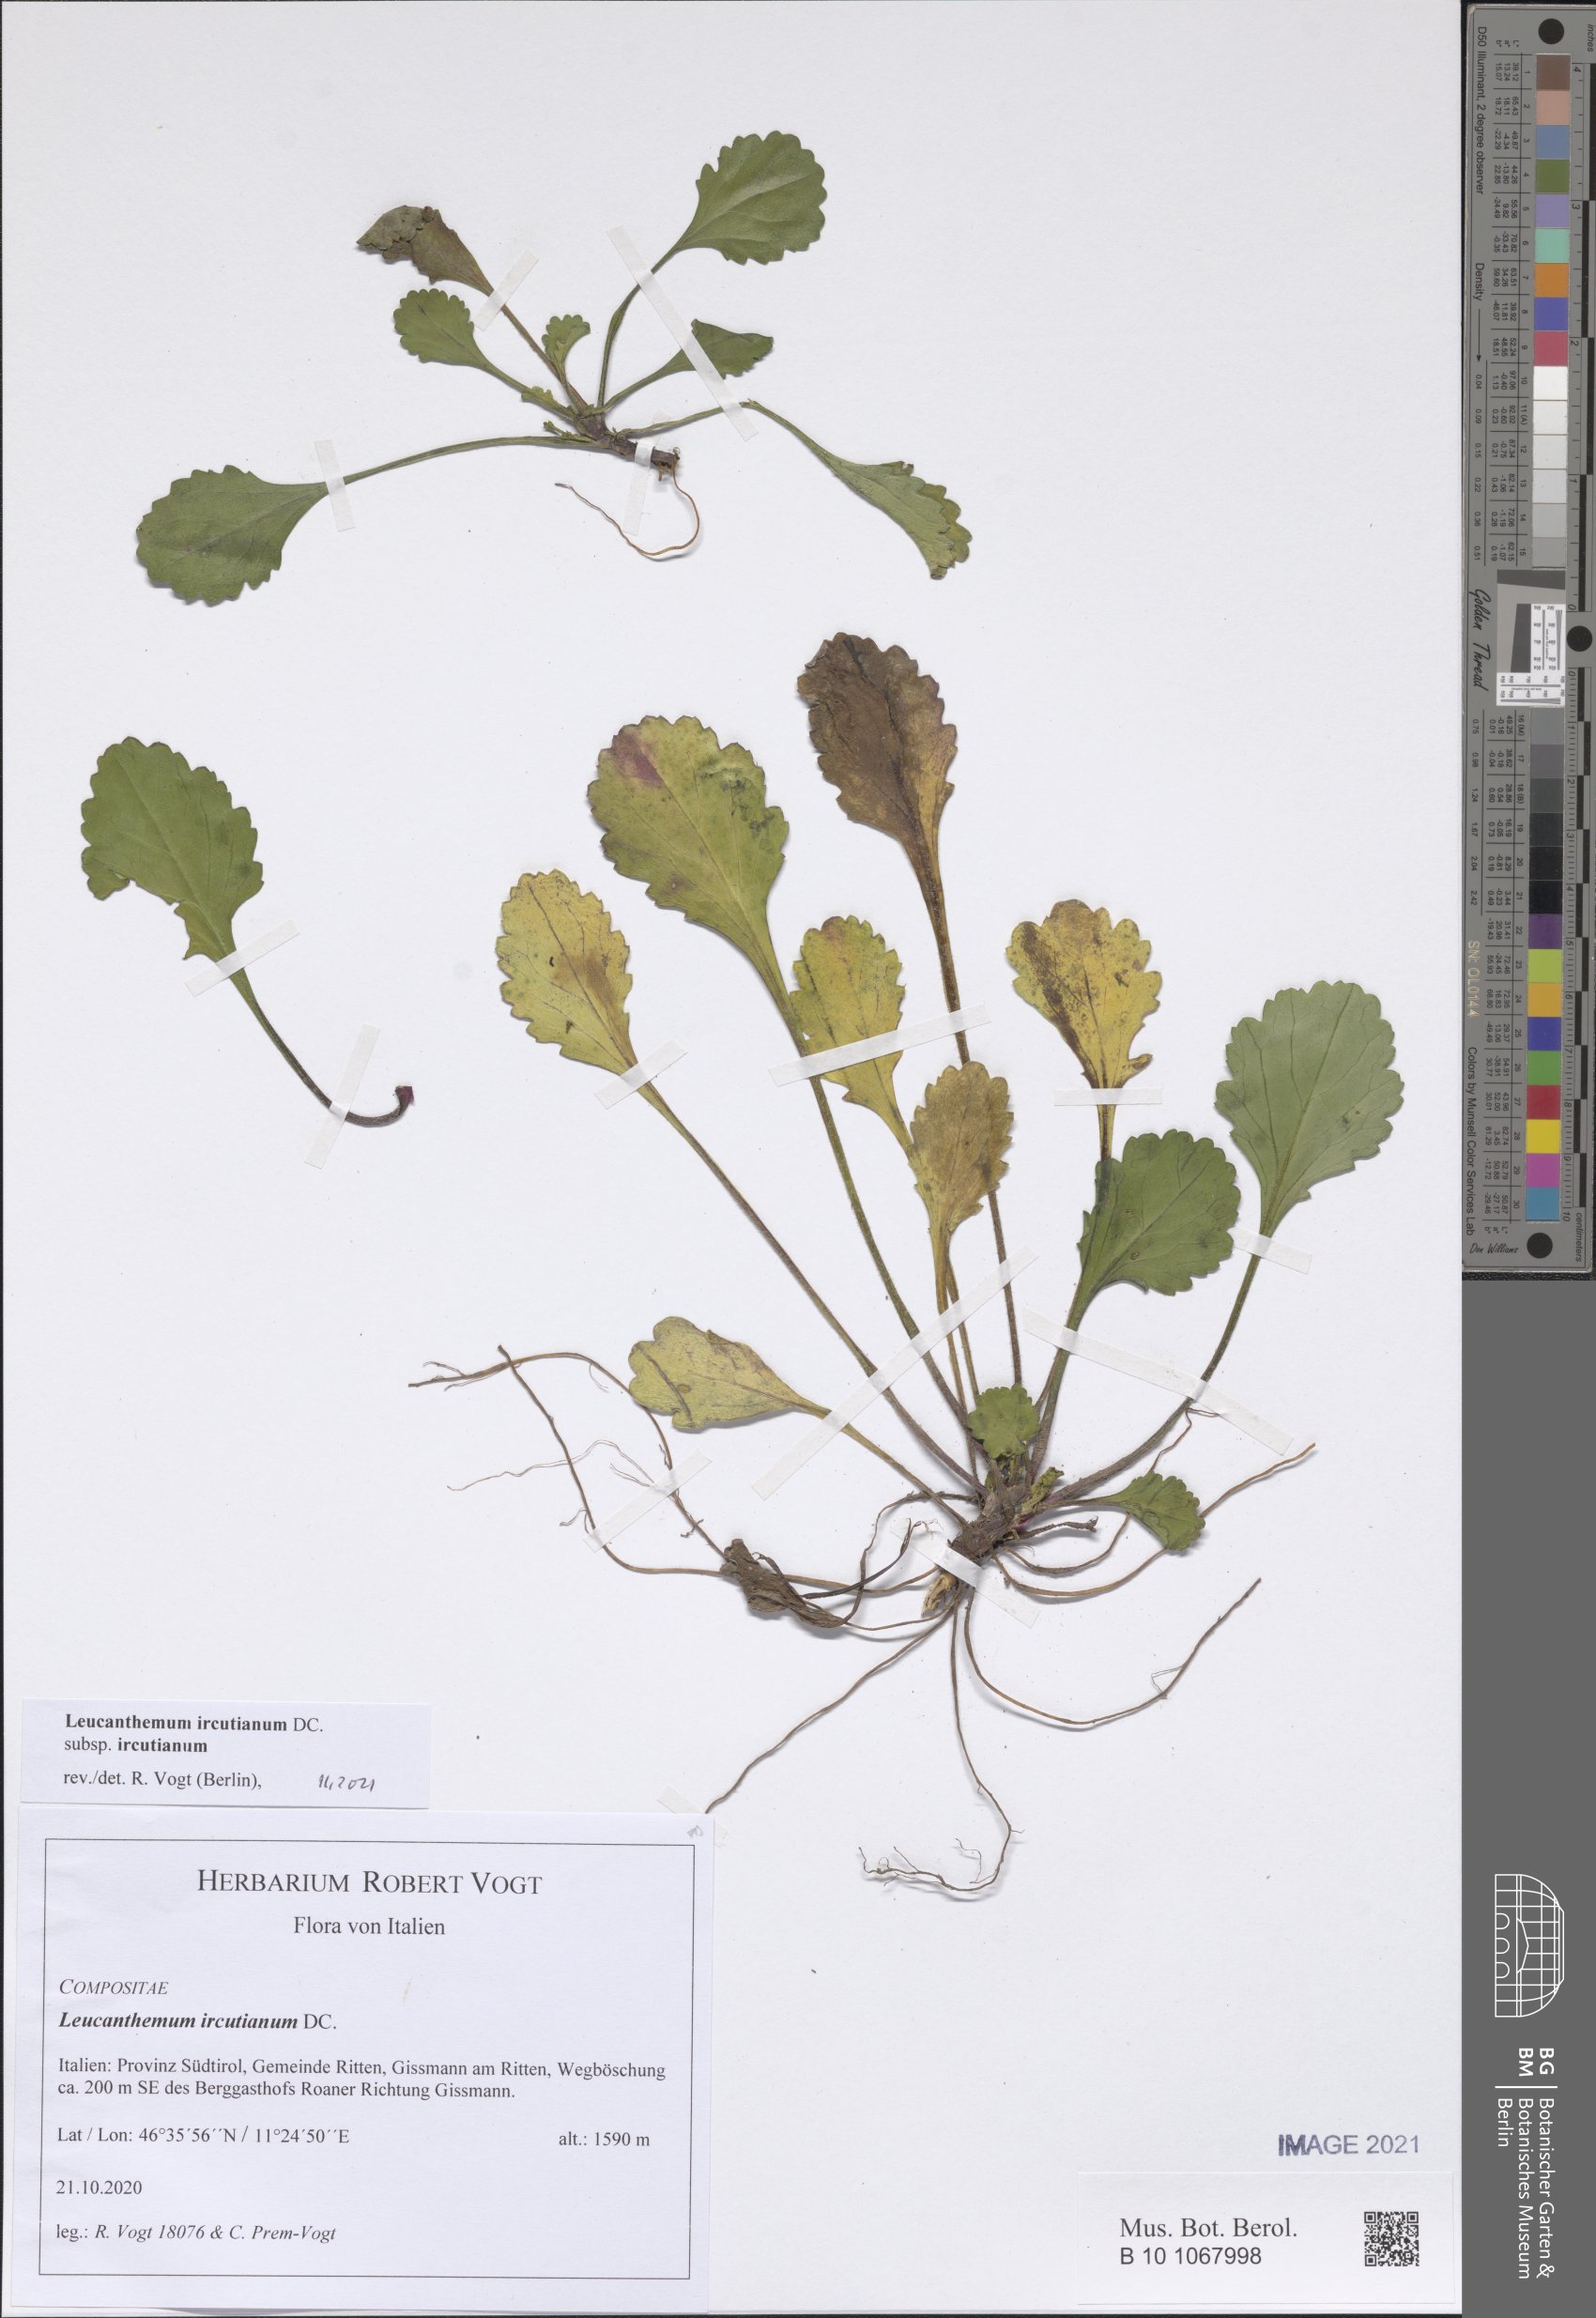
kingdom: Plantae
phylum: Tracheophyta
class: Magnoliopsida
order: Asterales
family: Asteraceae
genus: Leucanthemum
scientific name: Leucanthemum ircutianum
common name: Daisy
